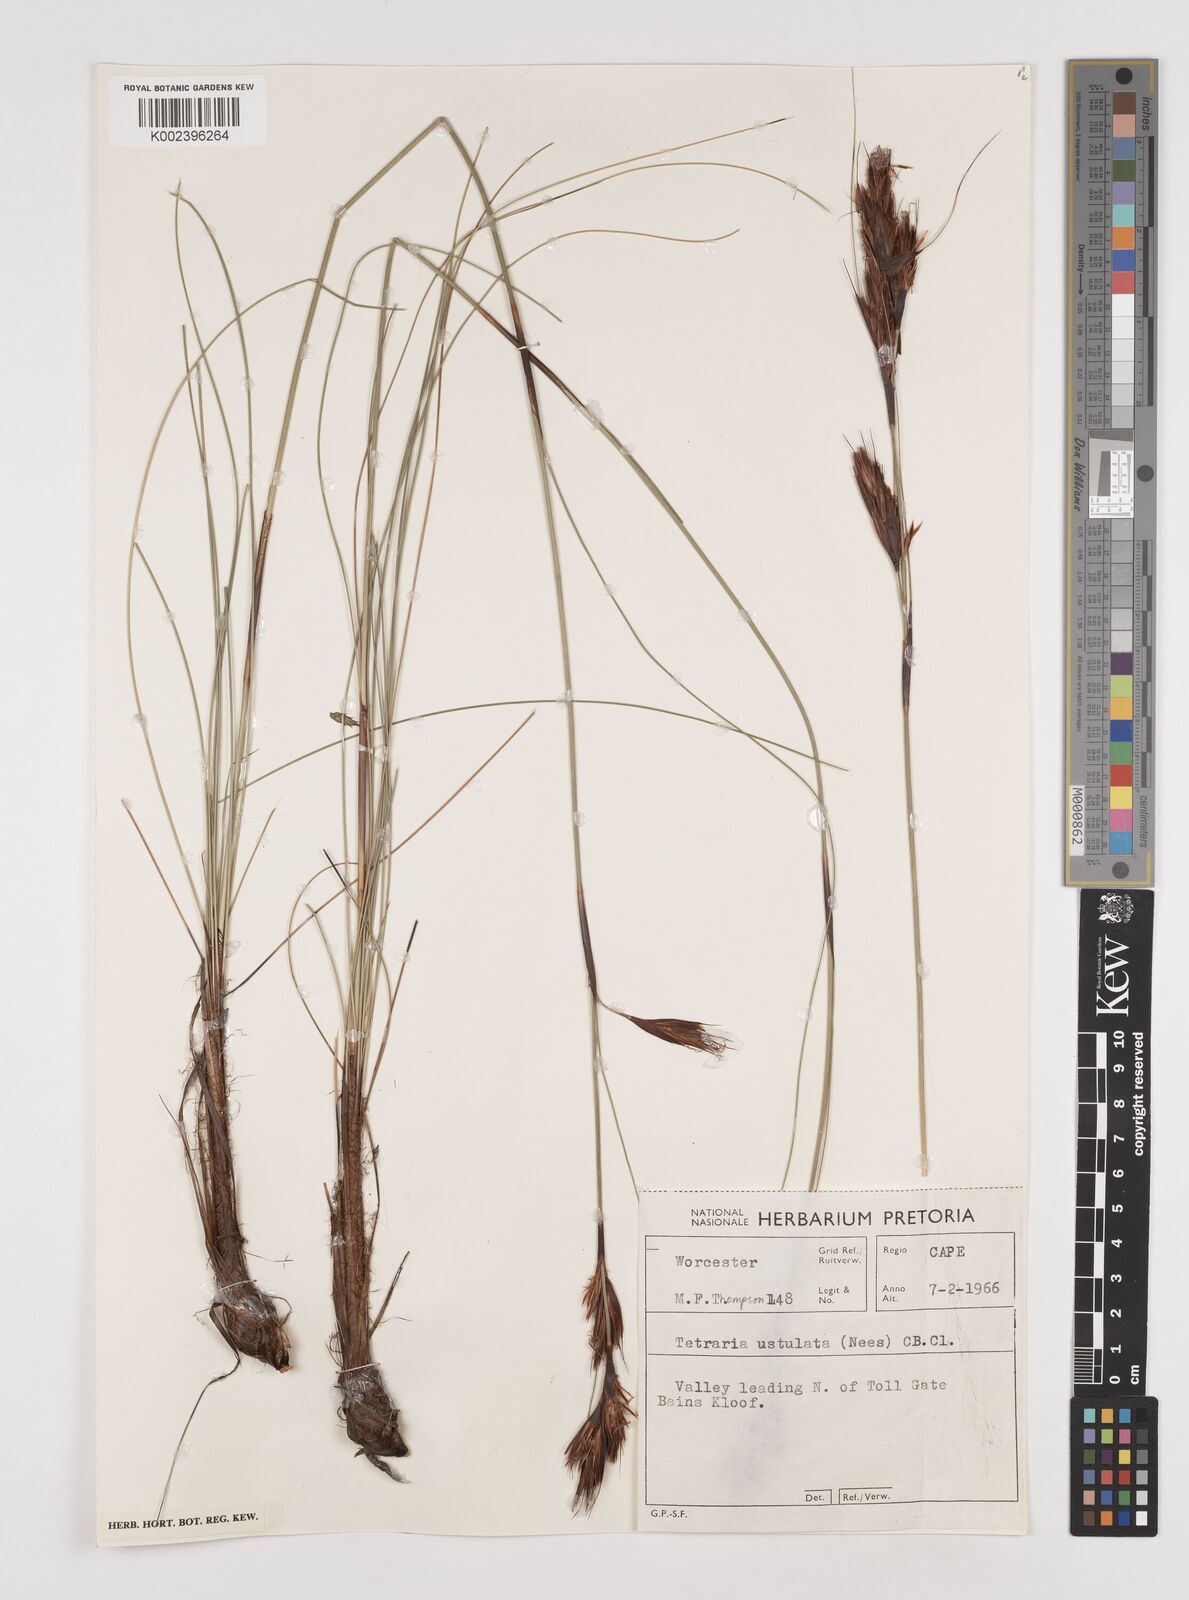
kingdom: Plantae
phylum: Tracheophyta
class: Liliopsida
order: Poales
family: Cyperaceae
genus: Tetraria
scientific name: Tetraria ustulata
